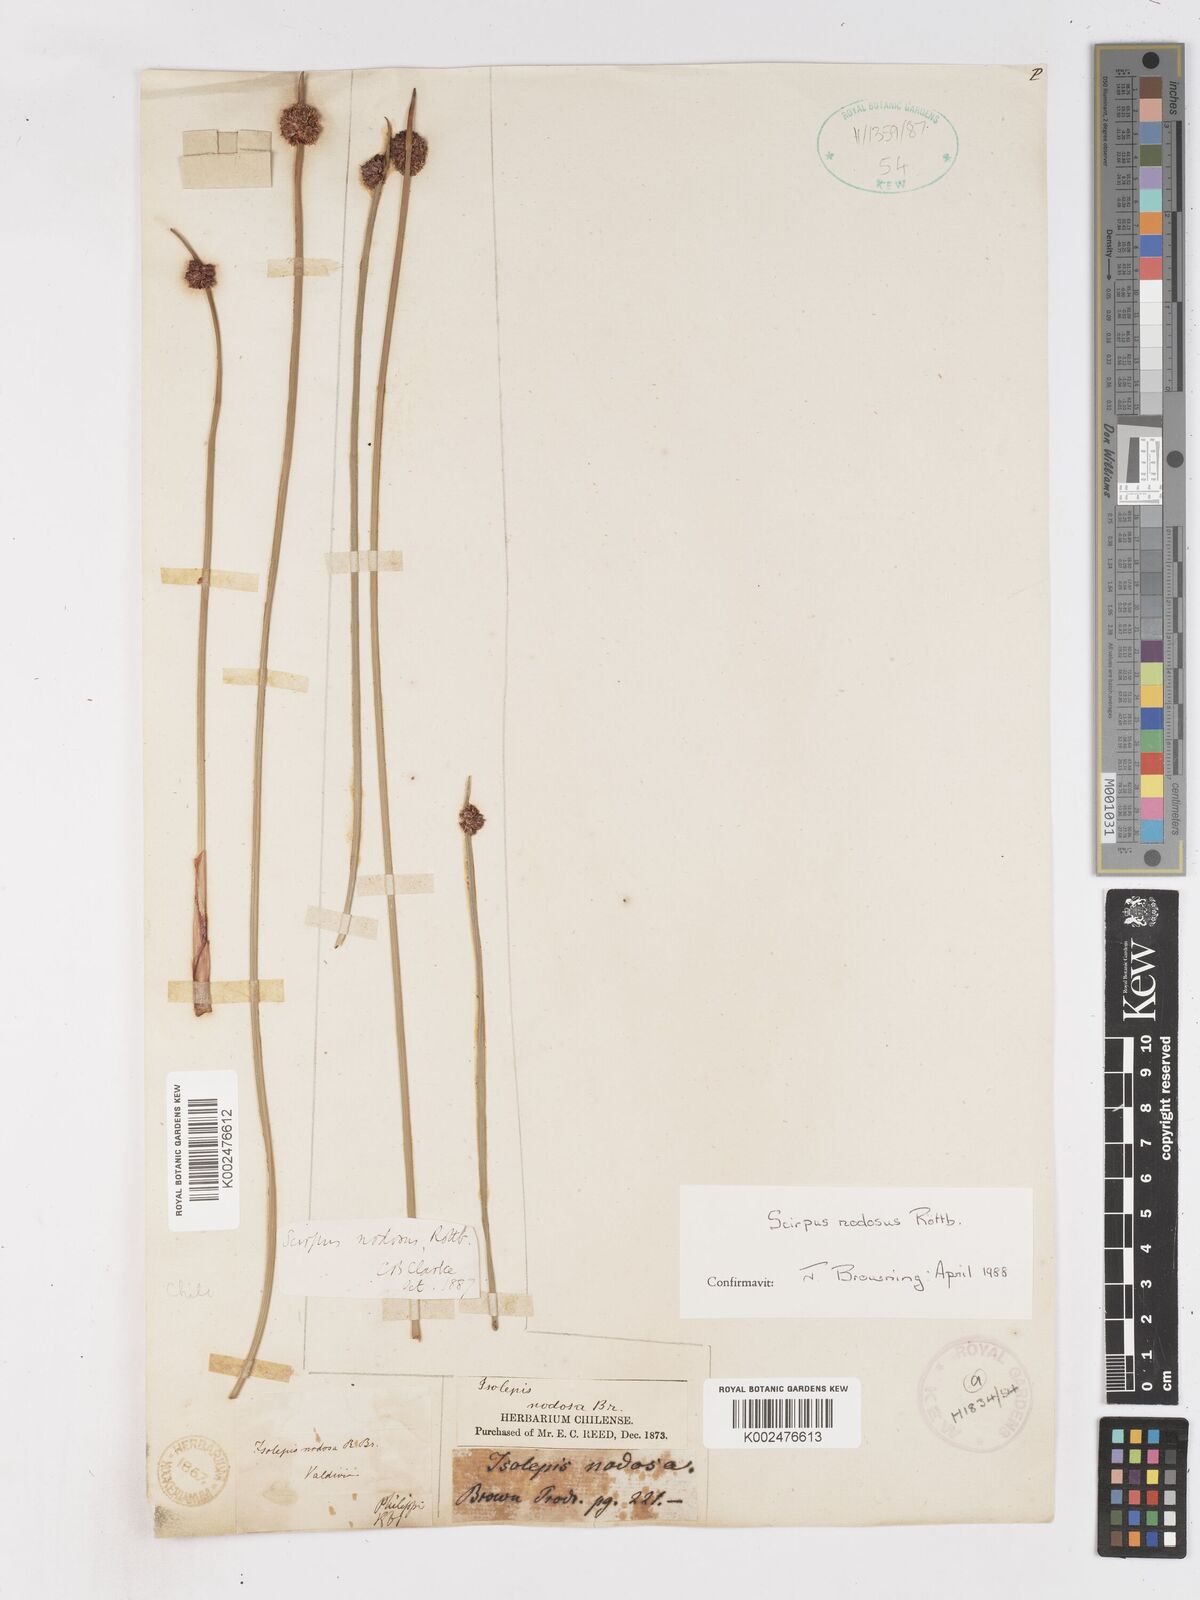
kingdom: Plantae
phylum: Tracheophyta
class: Liliopsida
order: Poales
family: Cyperaceae
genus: Ficinia
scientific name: Ficinia nodosa
